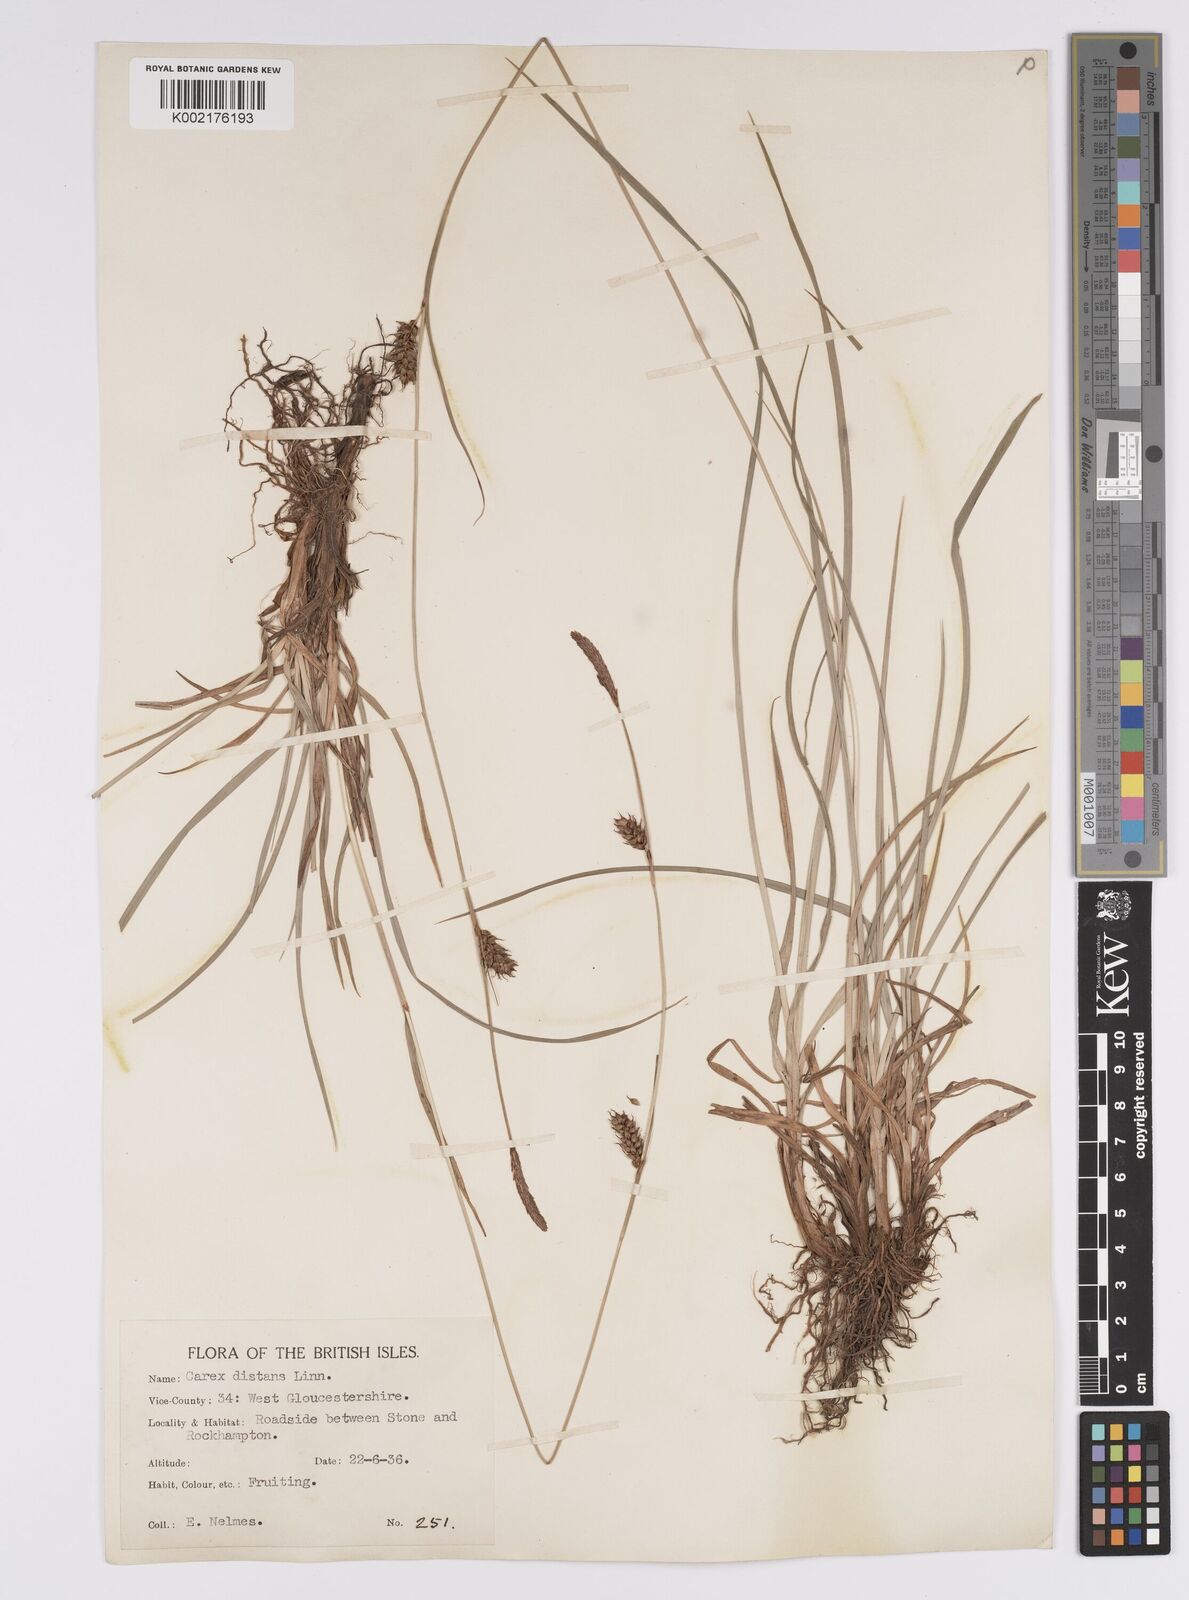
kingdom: Plantae
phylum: Tracheophyta
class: Liliopsida
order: Poales
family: Cyperaceae
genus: Carex
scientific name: Carex distans
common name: Distant sedge
